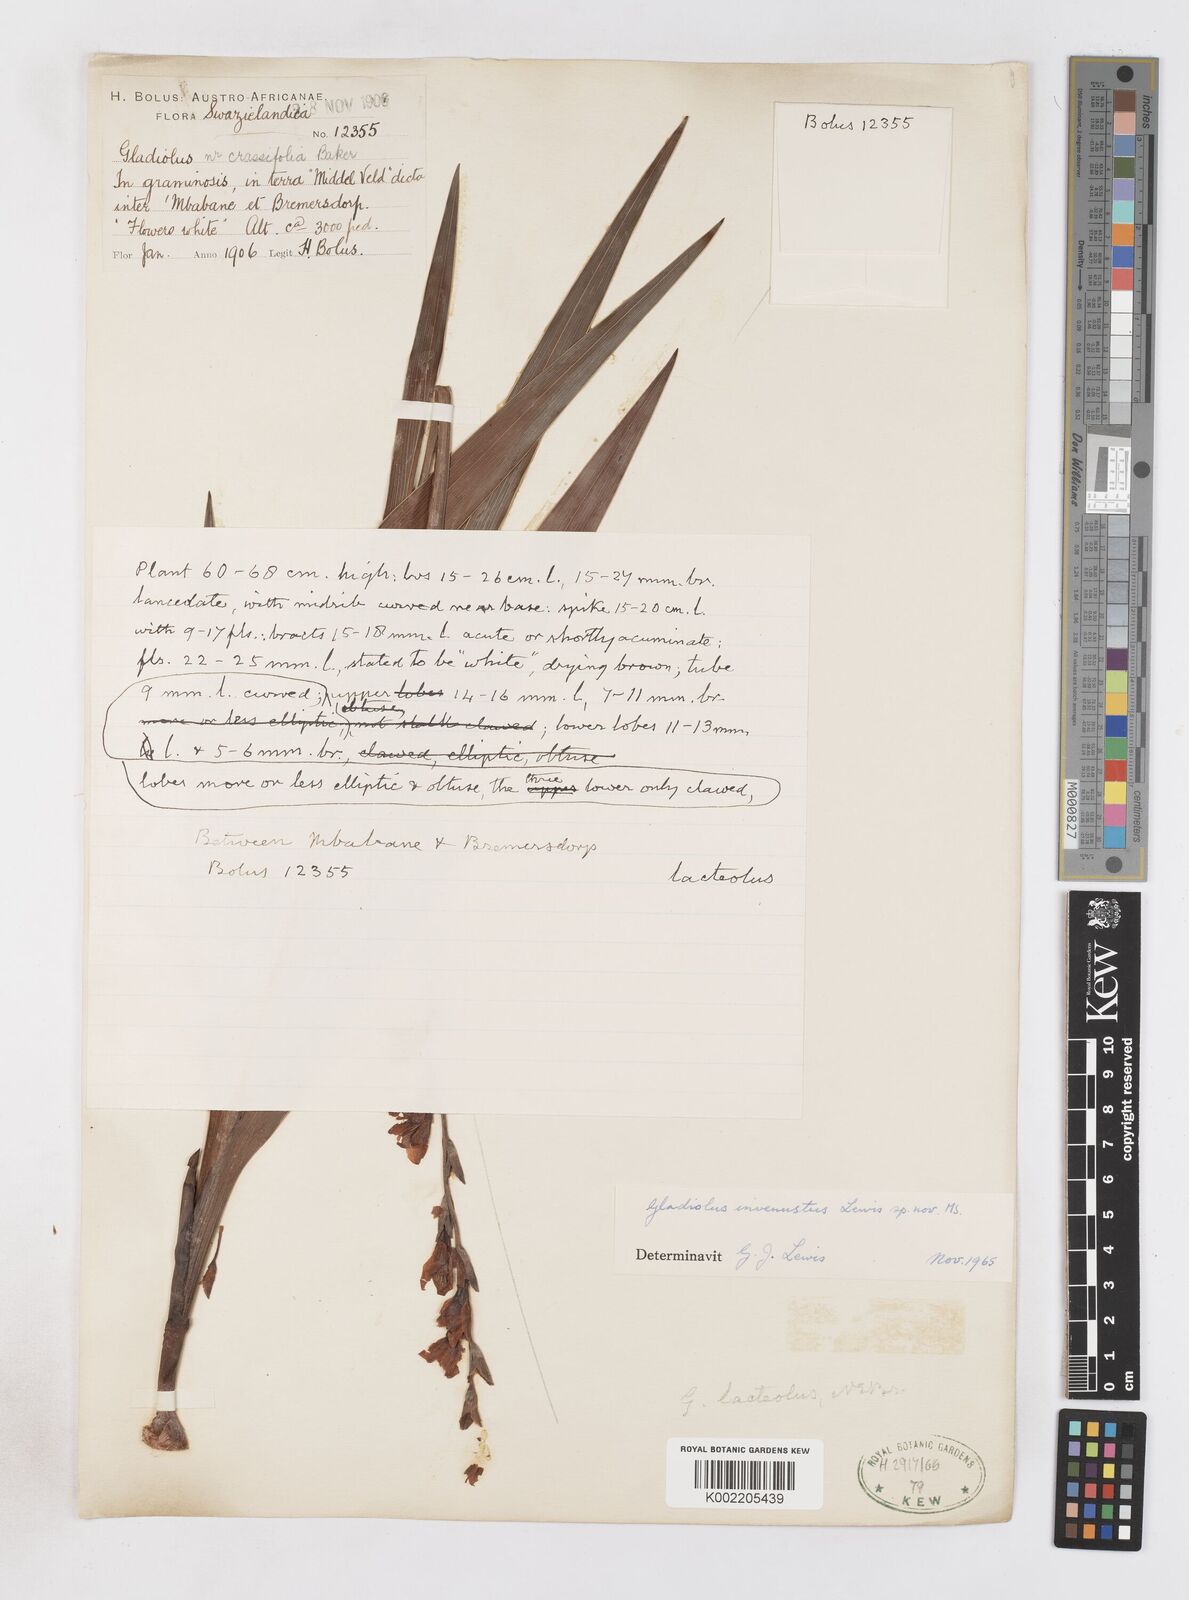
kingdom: Plantae
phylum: Tracheophyta
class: Liliopsida
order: Asparagales
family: Iridaceae
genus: Gladiolus
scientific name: Gladiolus densiflorus
